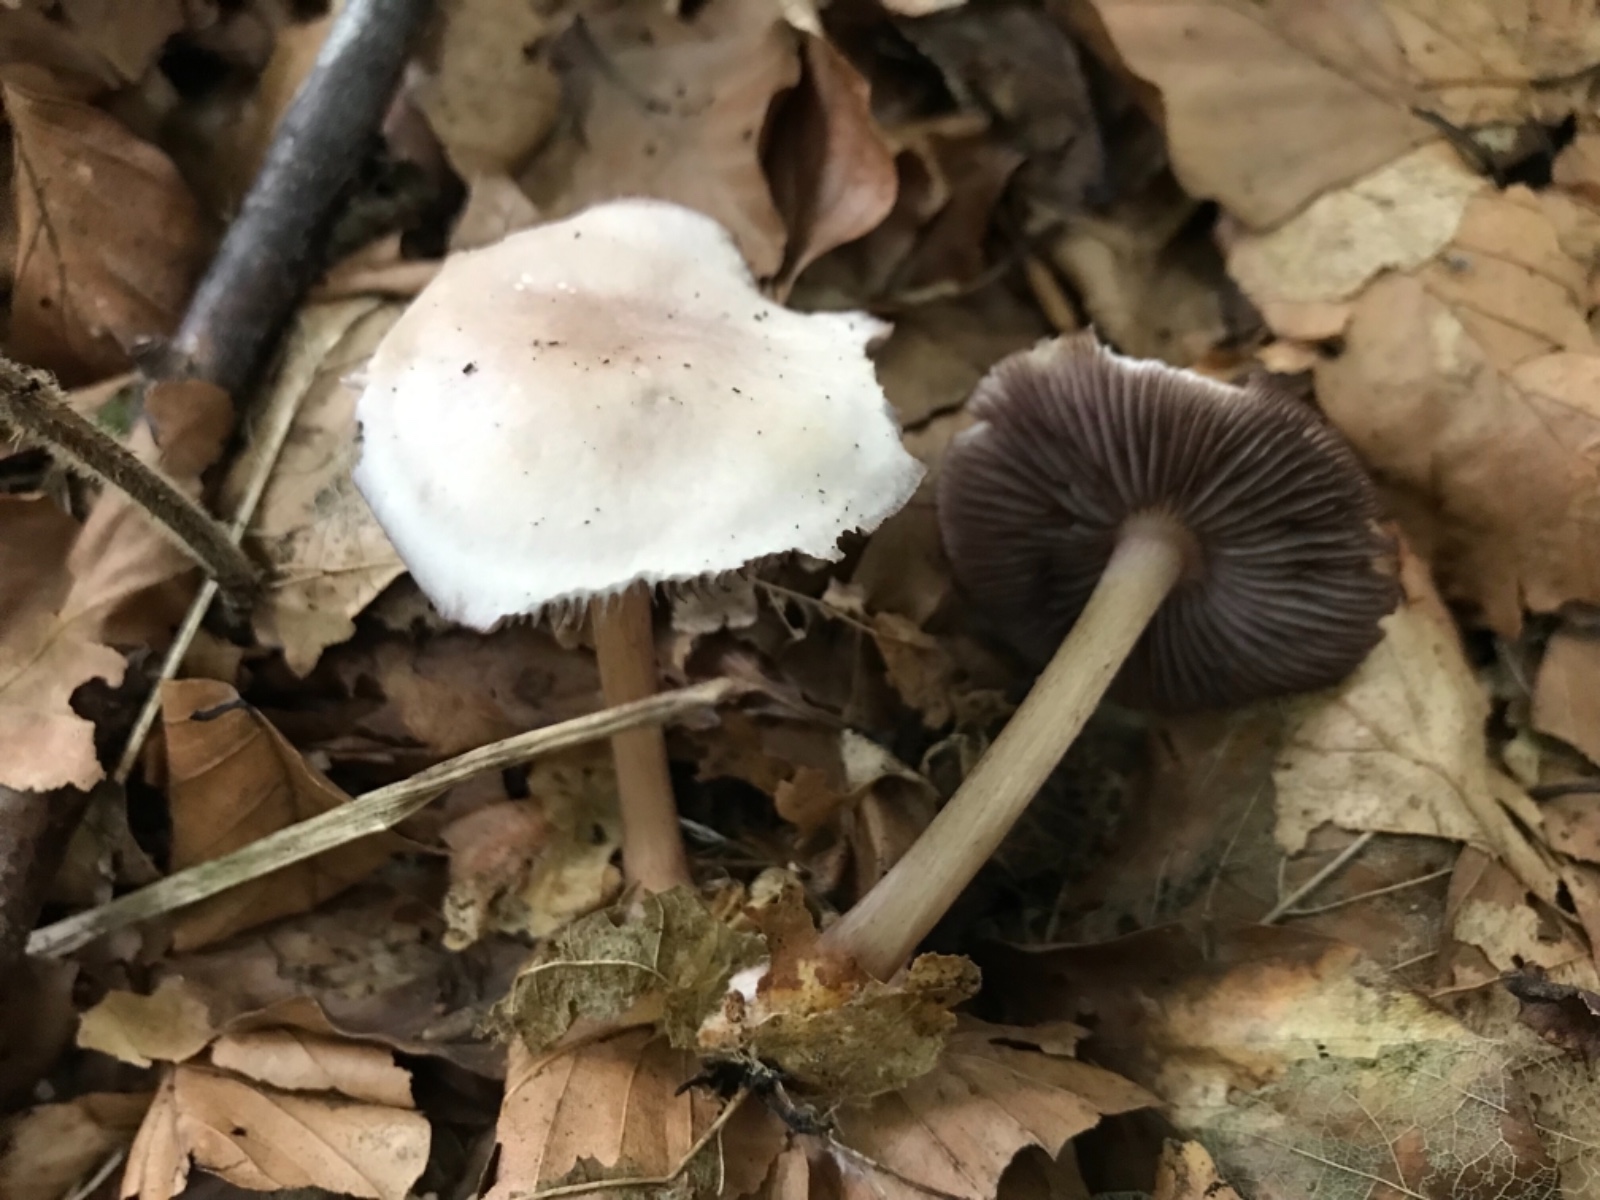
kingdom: Fungi
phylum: Basidiomycota
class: Agaricomycetes
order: Agaricales
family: Mycenaceae
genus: Mycena
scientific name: Mycena pelianthina
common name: mørkbladet huesvamp
